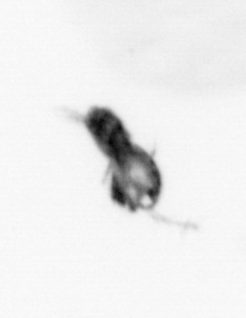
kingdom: Animalia
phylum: Arthropoda
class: Copepoda
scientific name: Copepoda
